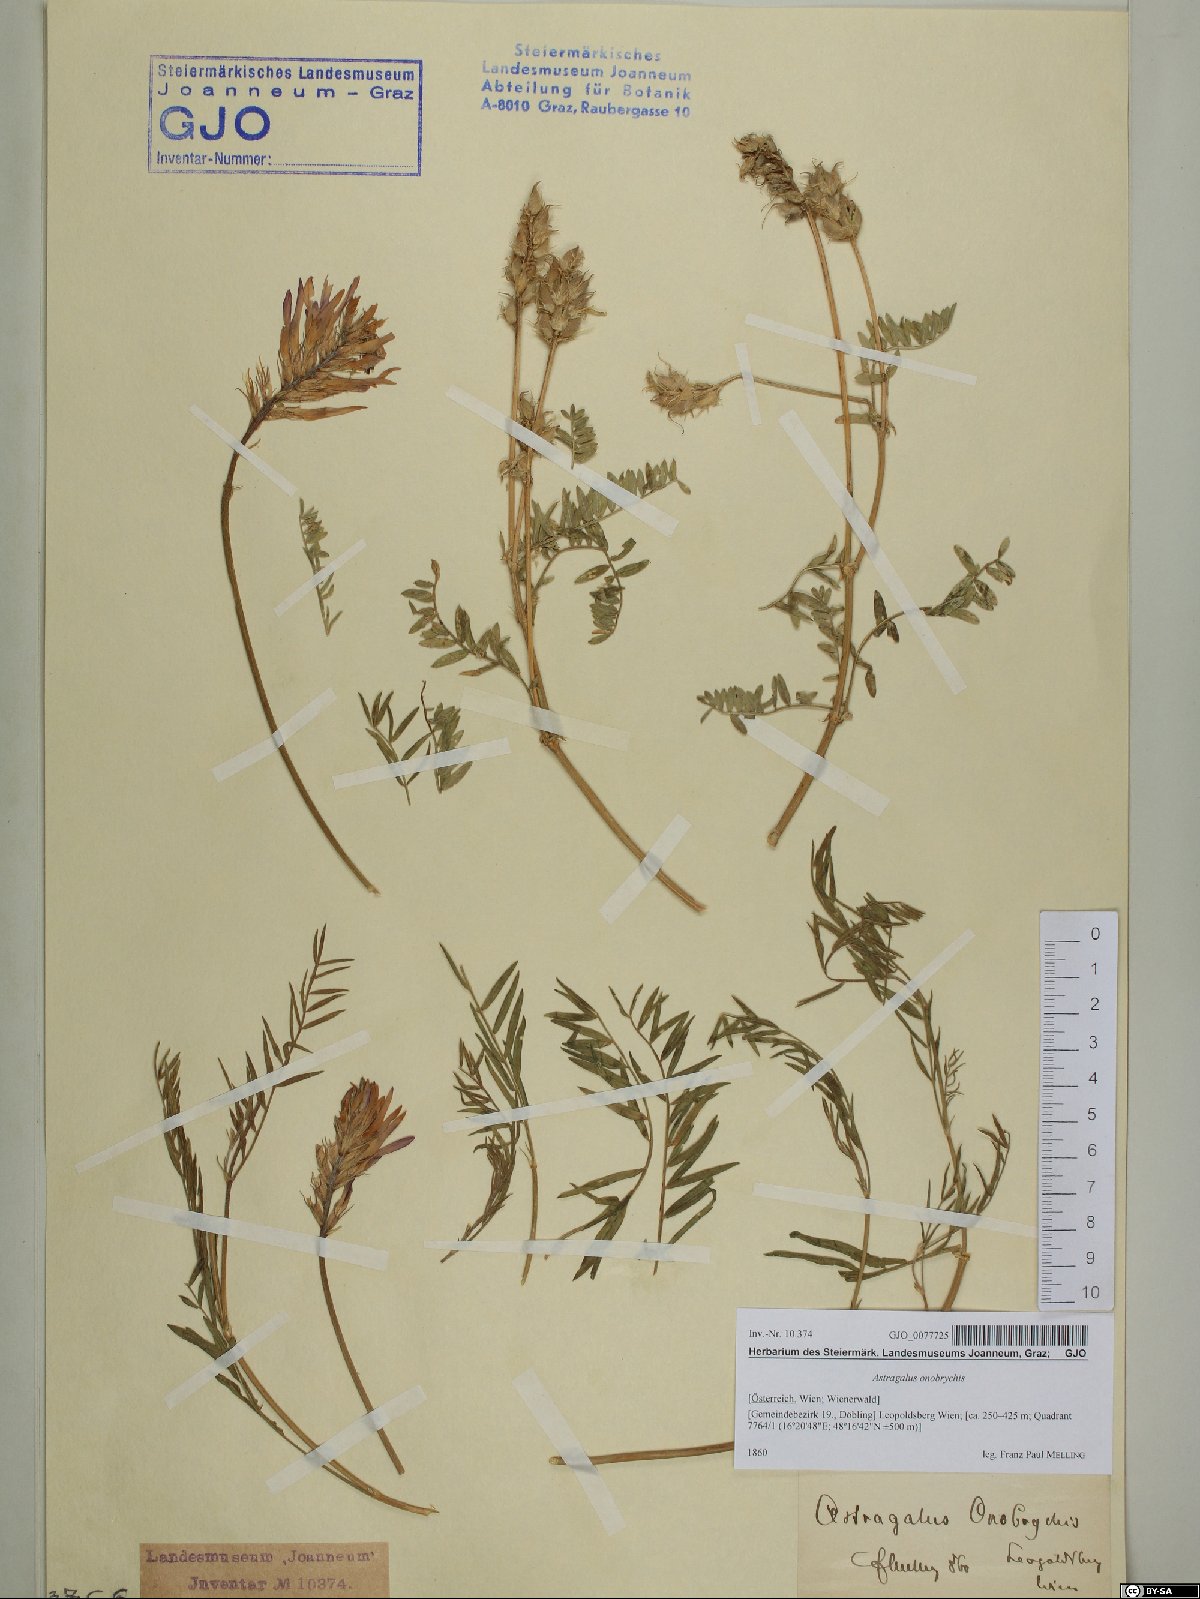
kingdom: Plantae
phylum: Tracheophyta
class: Magnoliopsida
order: Fabales
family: Fabaceae
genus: Astragalus
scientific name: Astragalus onobrychis
